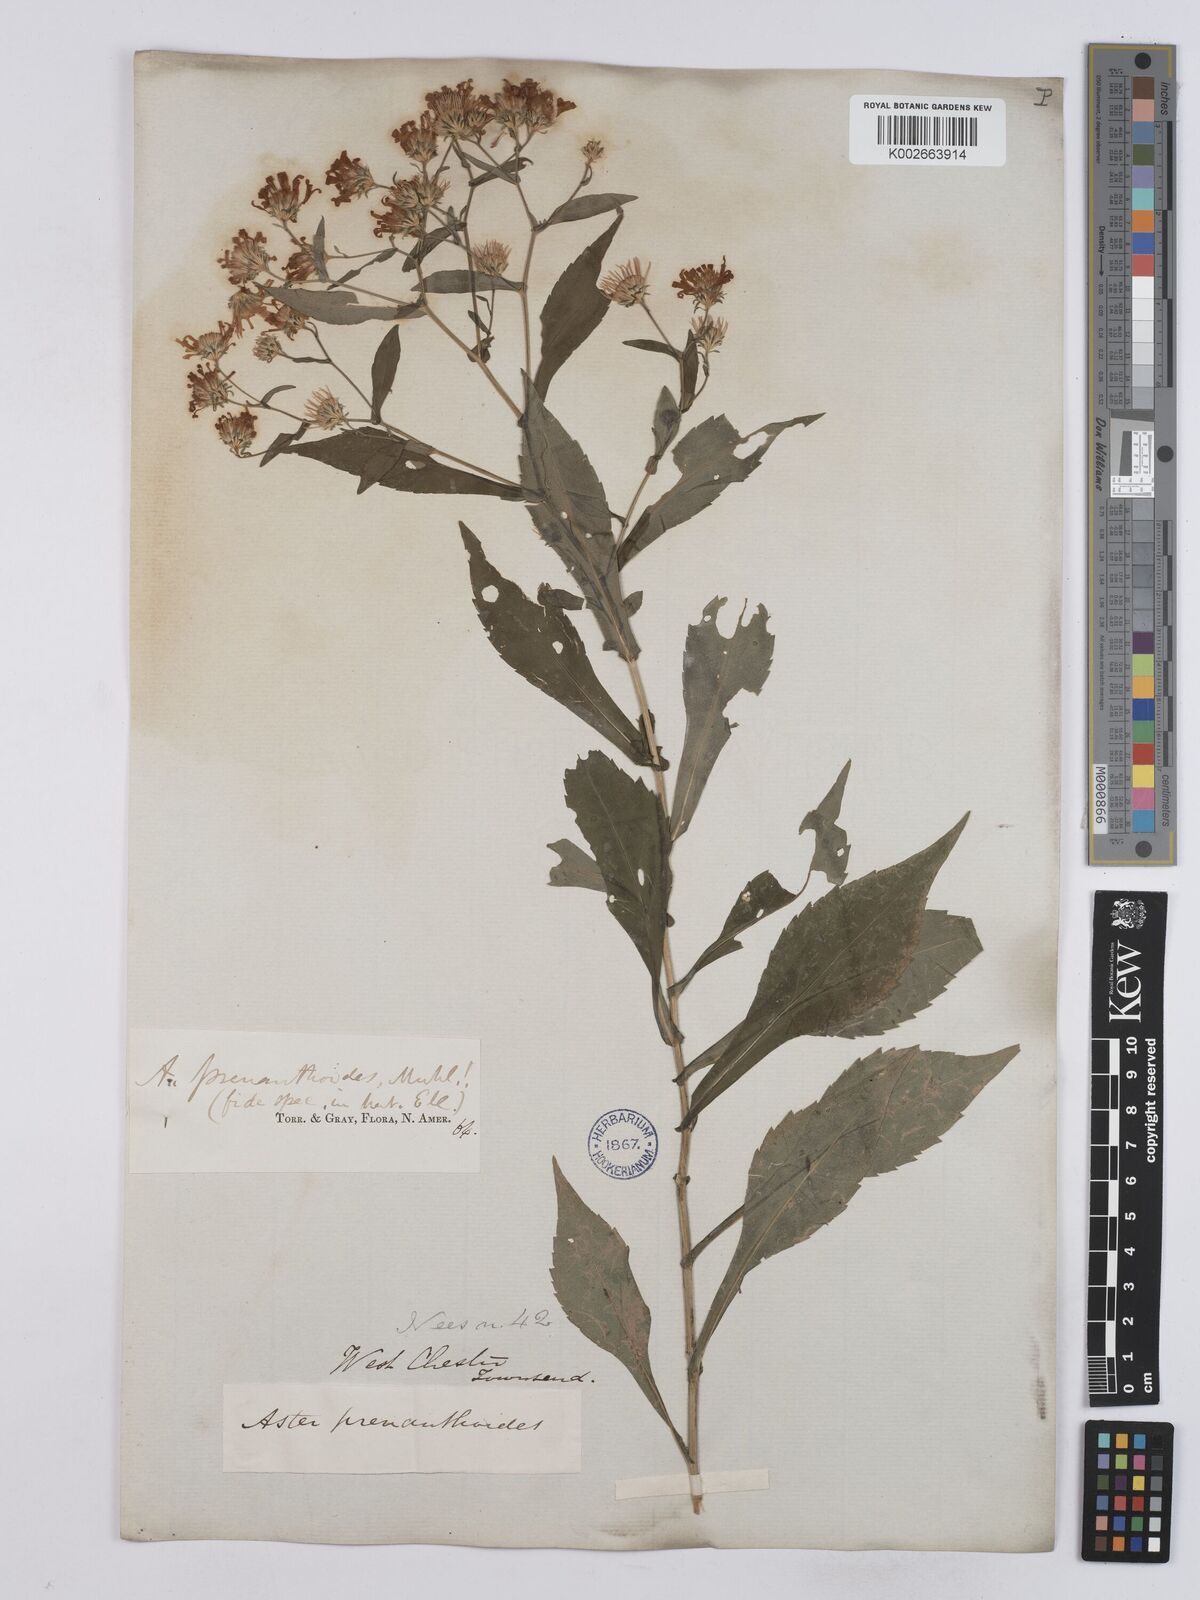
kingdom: Plantae
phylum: Tracheophyta
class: Magnoliopsida
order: Asterales
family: Asteraceae
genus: Symphyotrichum
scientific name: Symphyotrichum prenanthoides
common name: Crooked-stem aster
